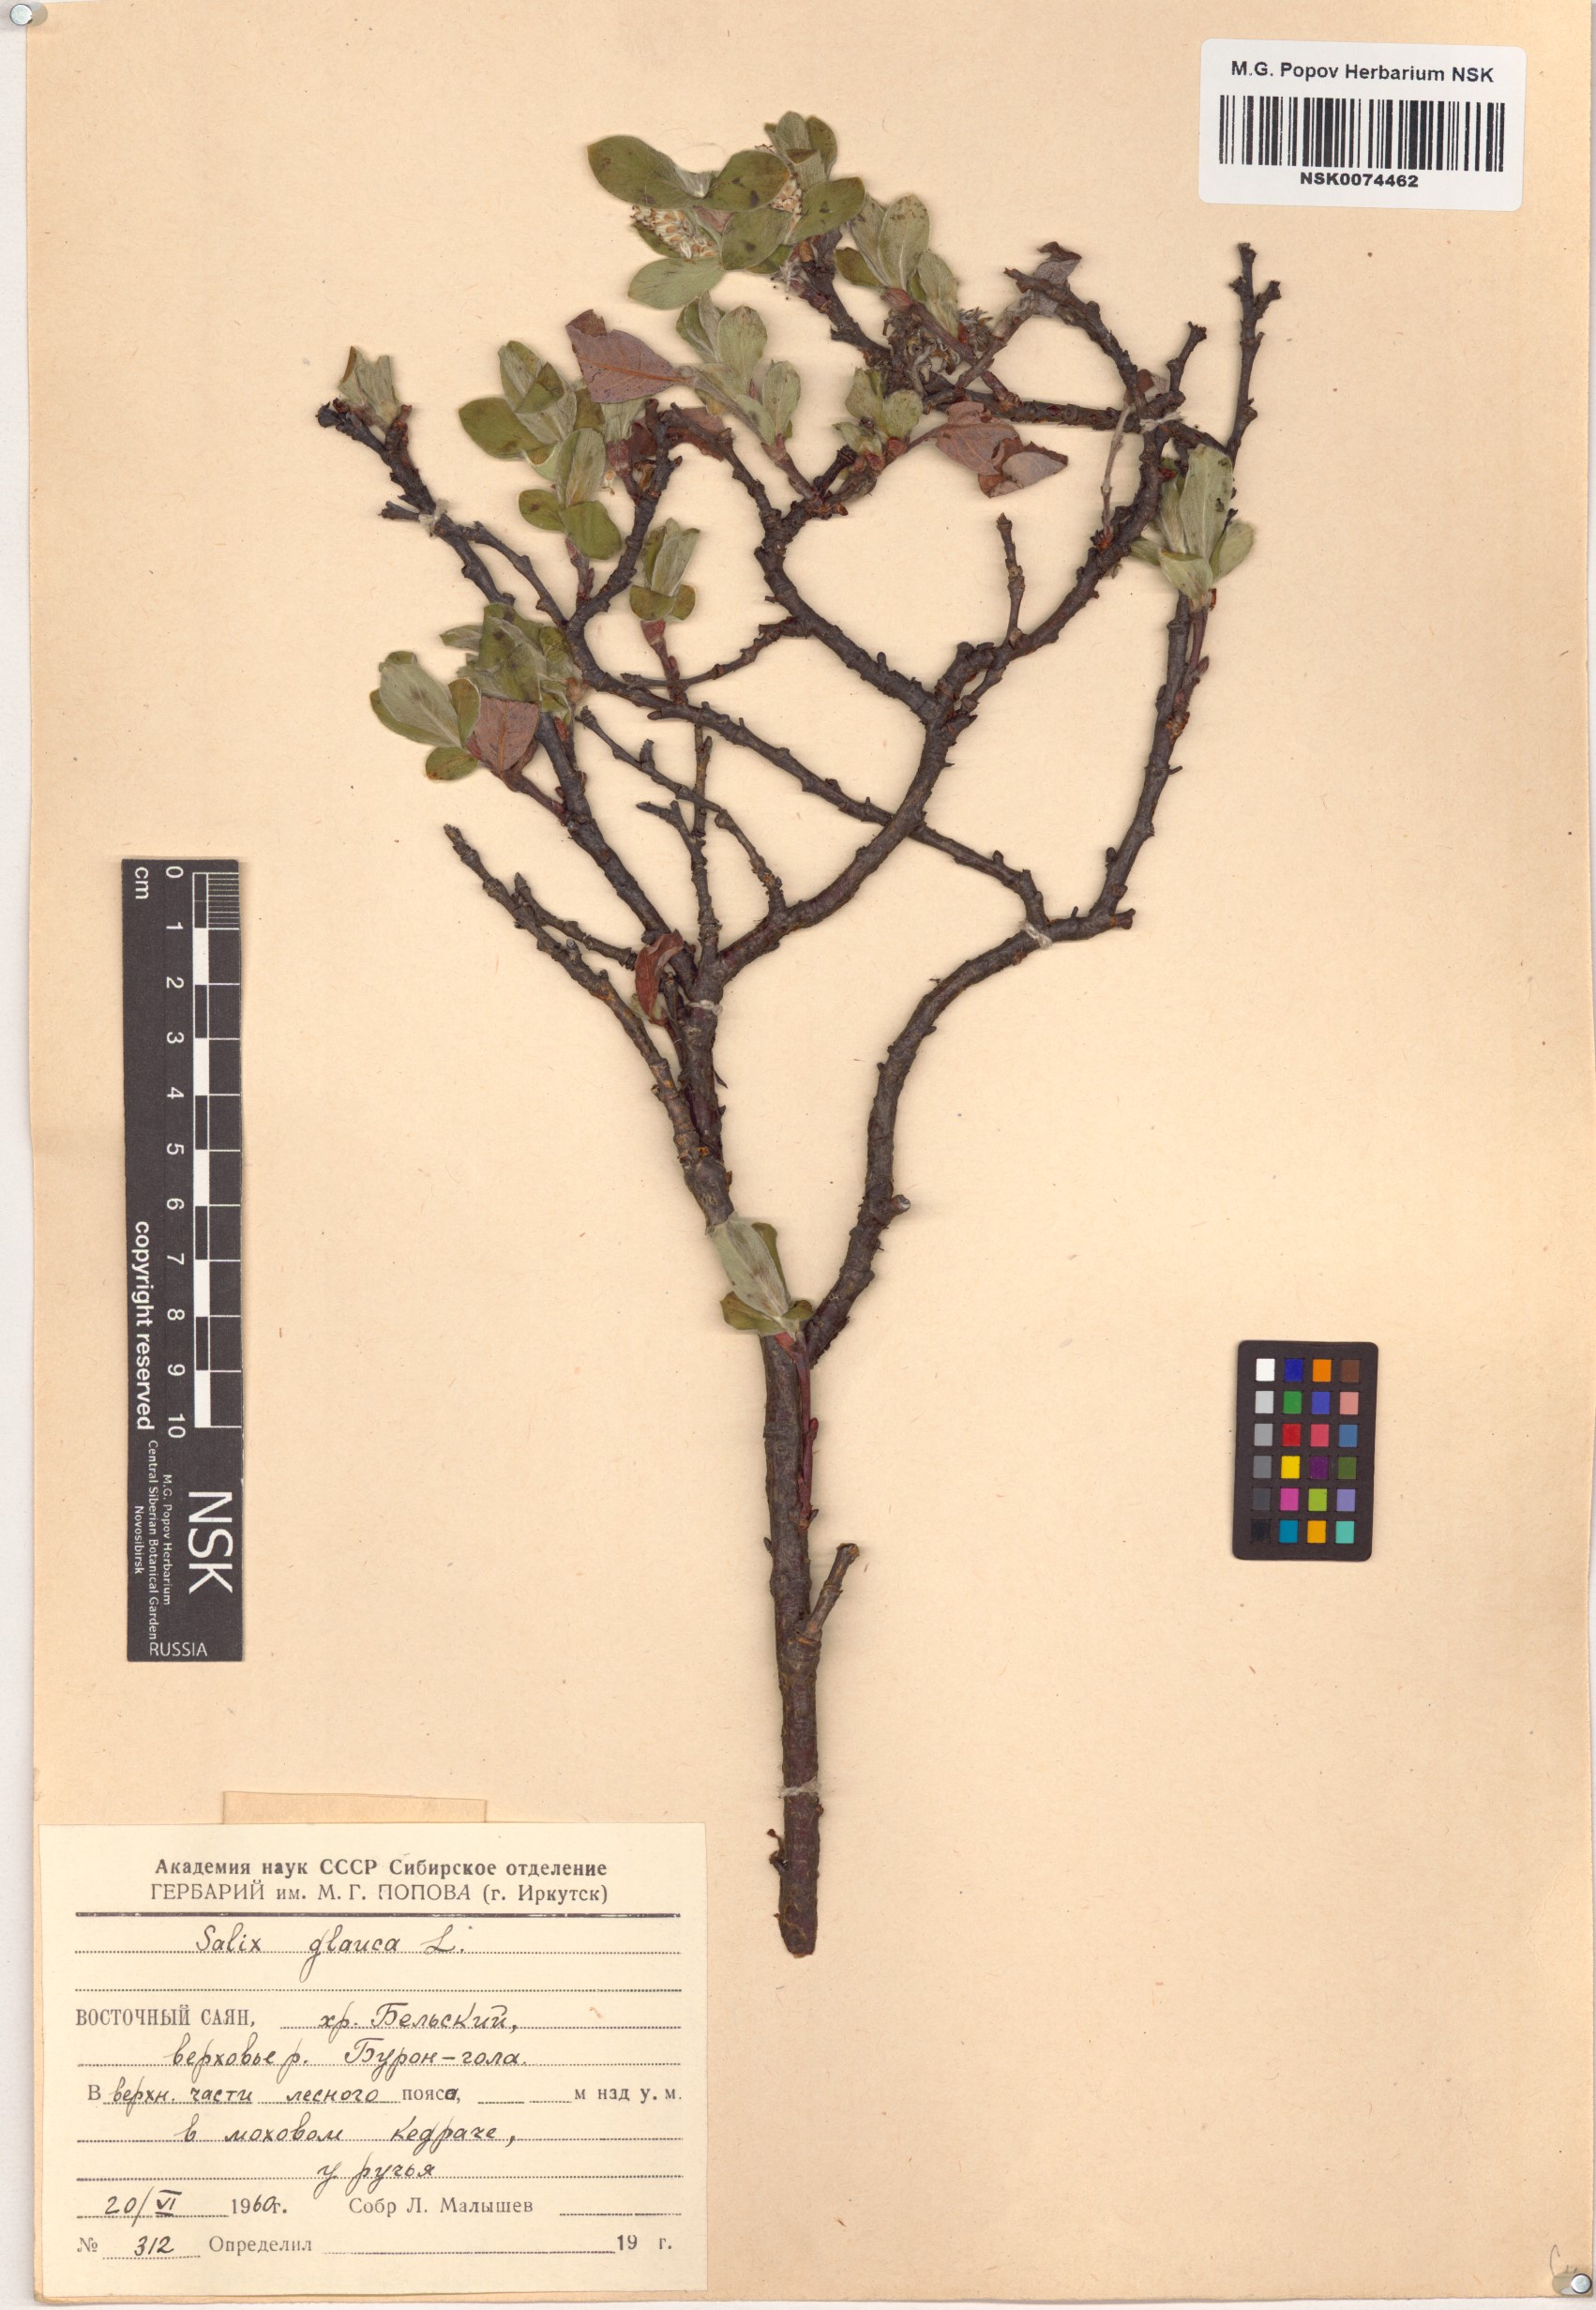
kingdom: Plantae
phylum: Tracheophyta
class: Magnoliopsida
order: Malpighiales
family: Salicaceae
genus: Salix
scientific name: Salix glauca
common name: Glaucous willow
